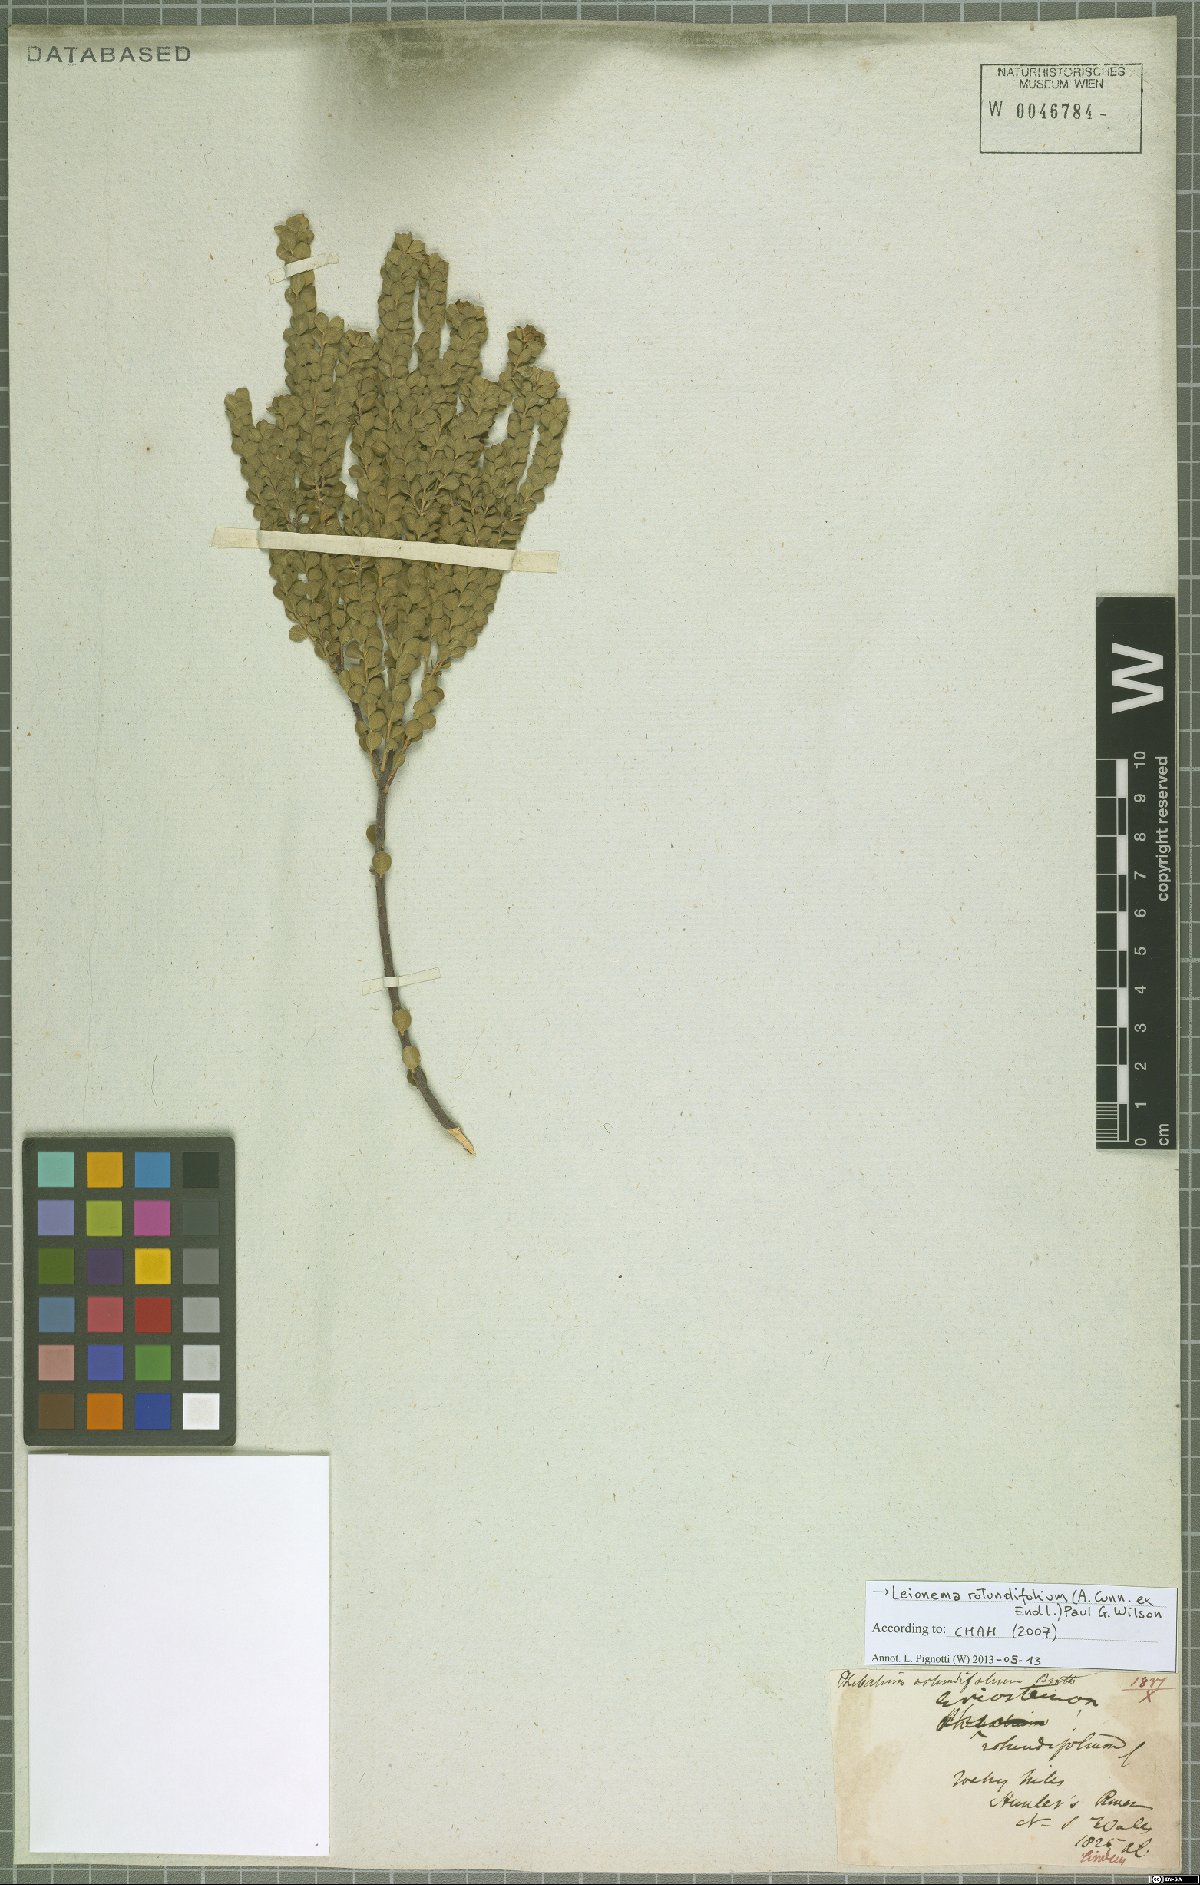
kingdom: Plantae
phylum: Tracheophyta
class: Magnoliopsida
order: Sapindales
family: Rutaceae
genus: Leionema
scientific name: Leionema rotundifolium
